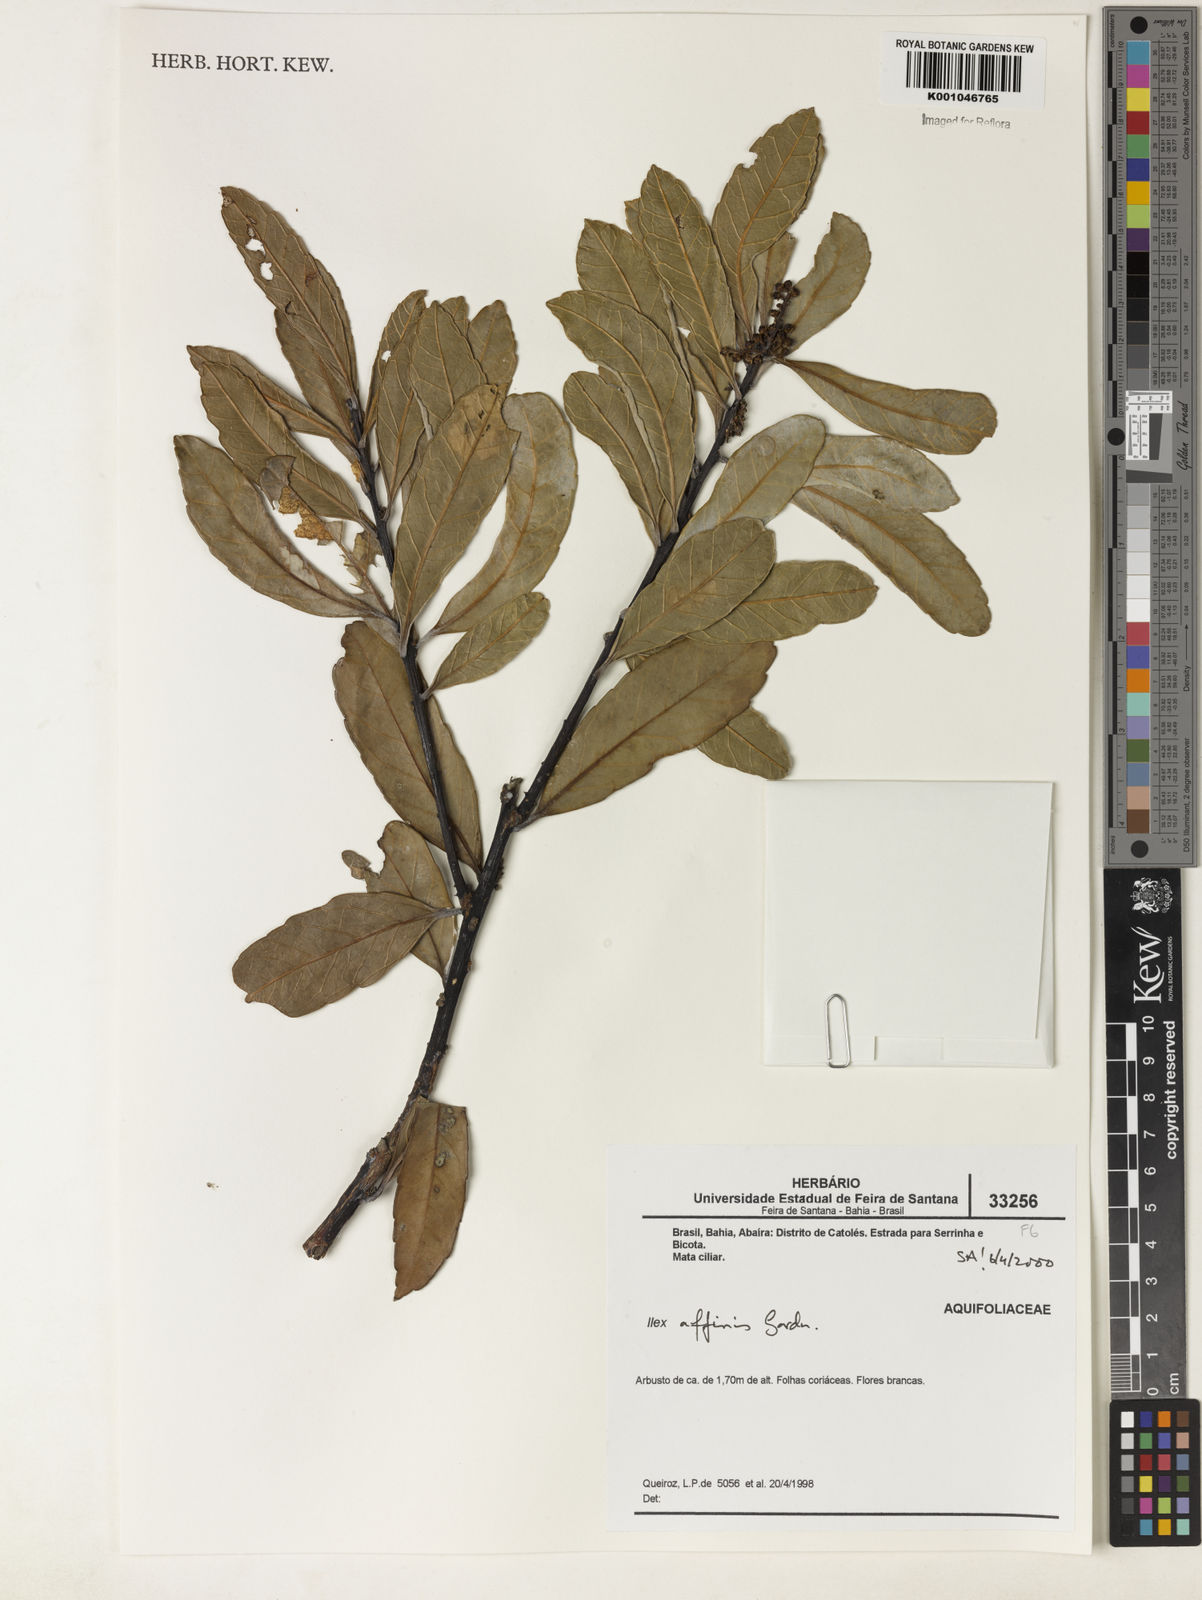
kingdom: Plantae
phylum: Tracheophyta
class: Magnoliopsida
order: Aquifoliales
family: Aquifoliaceae
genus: Ilex
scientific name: Ilex affinis
